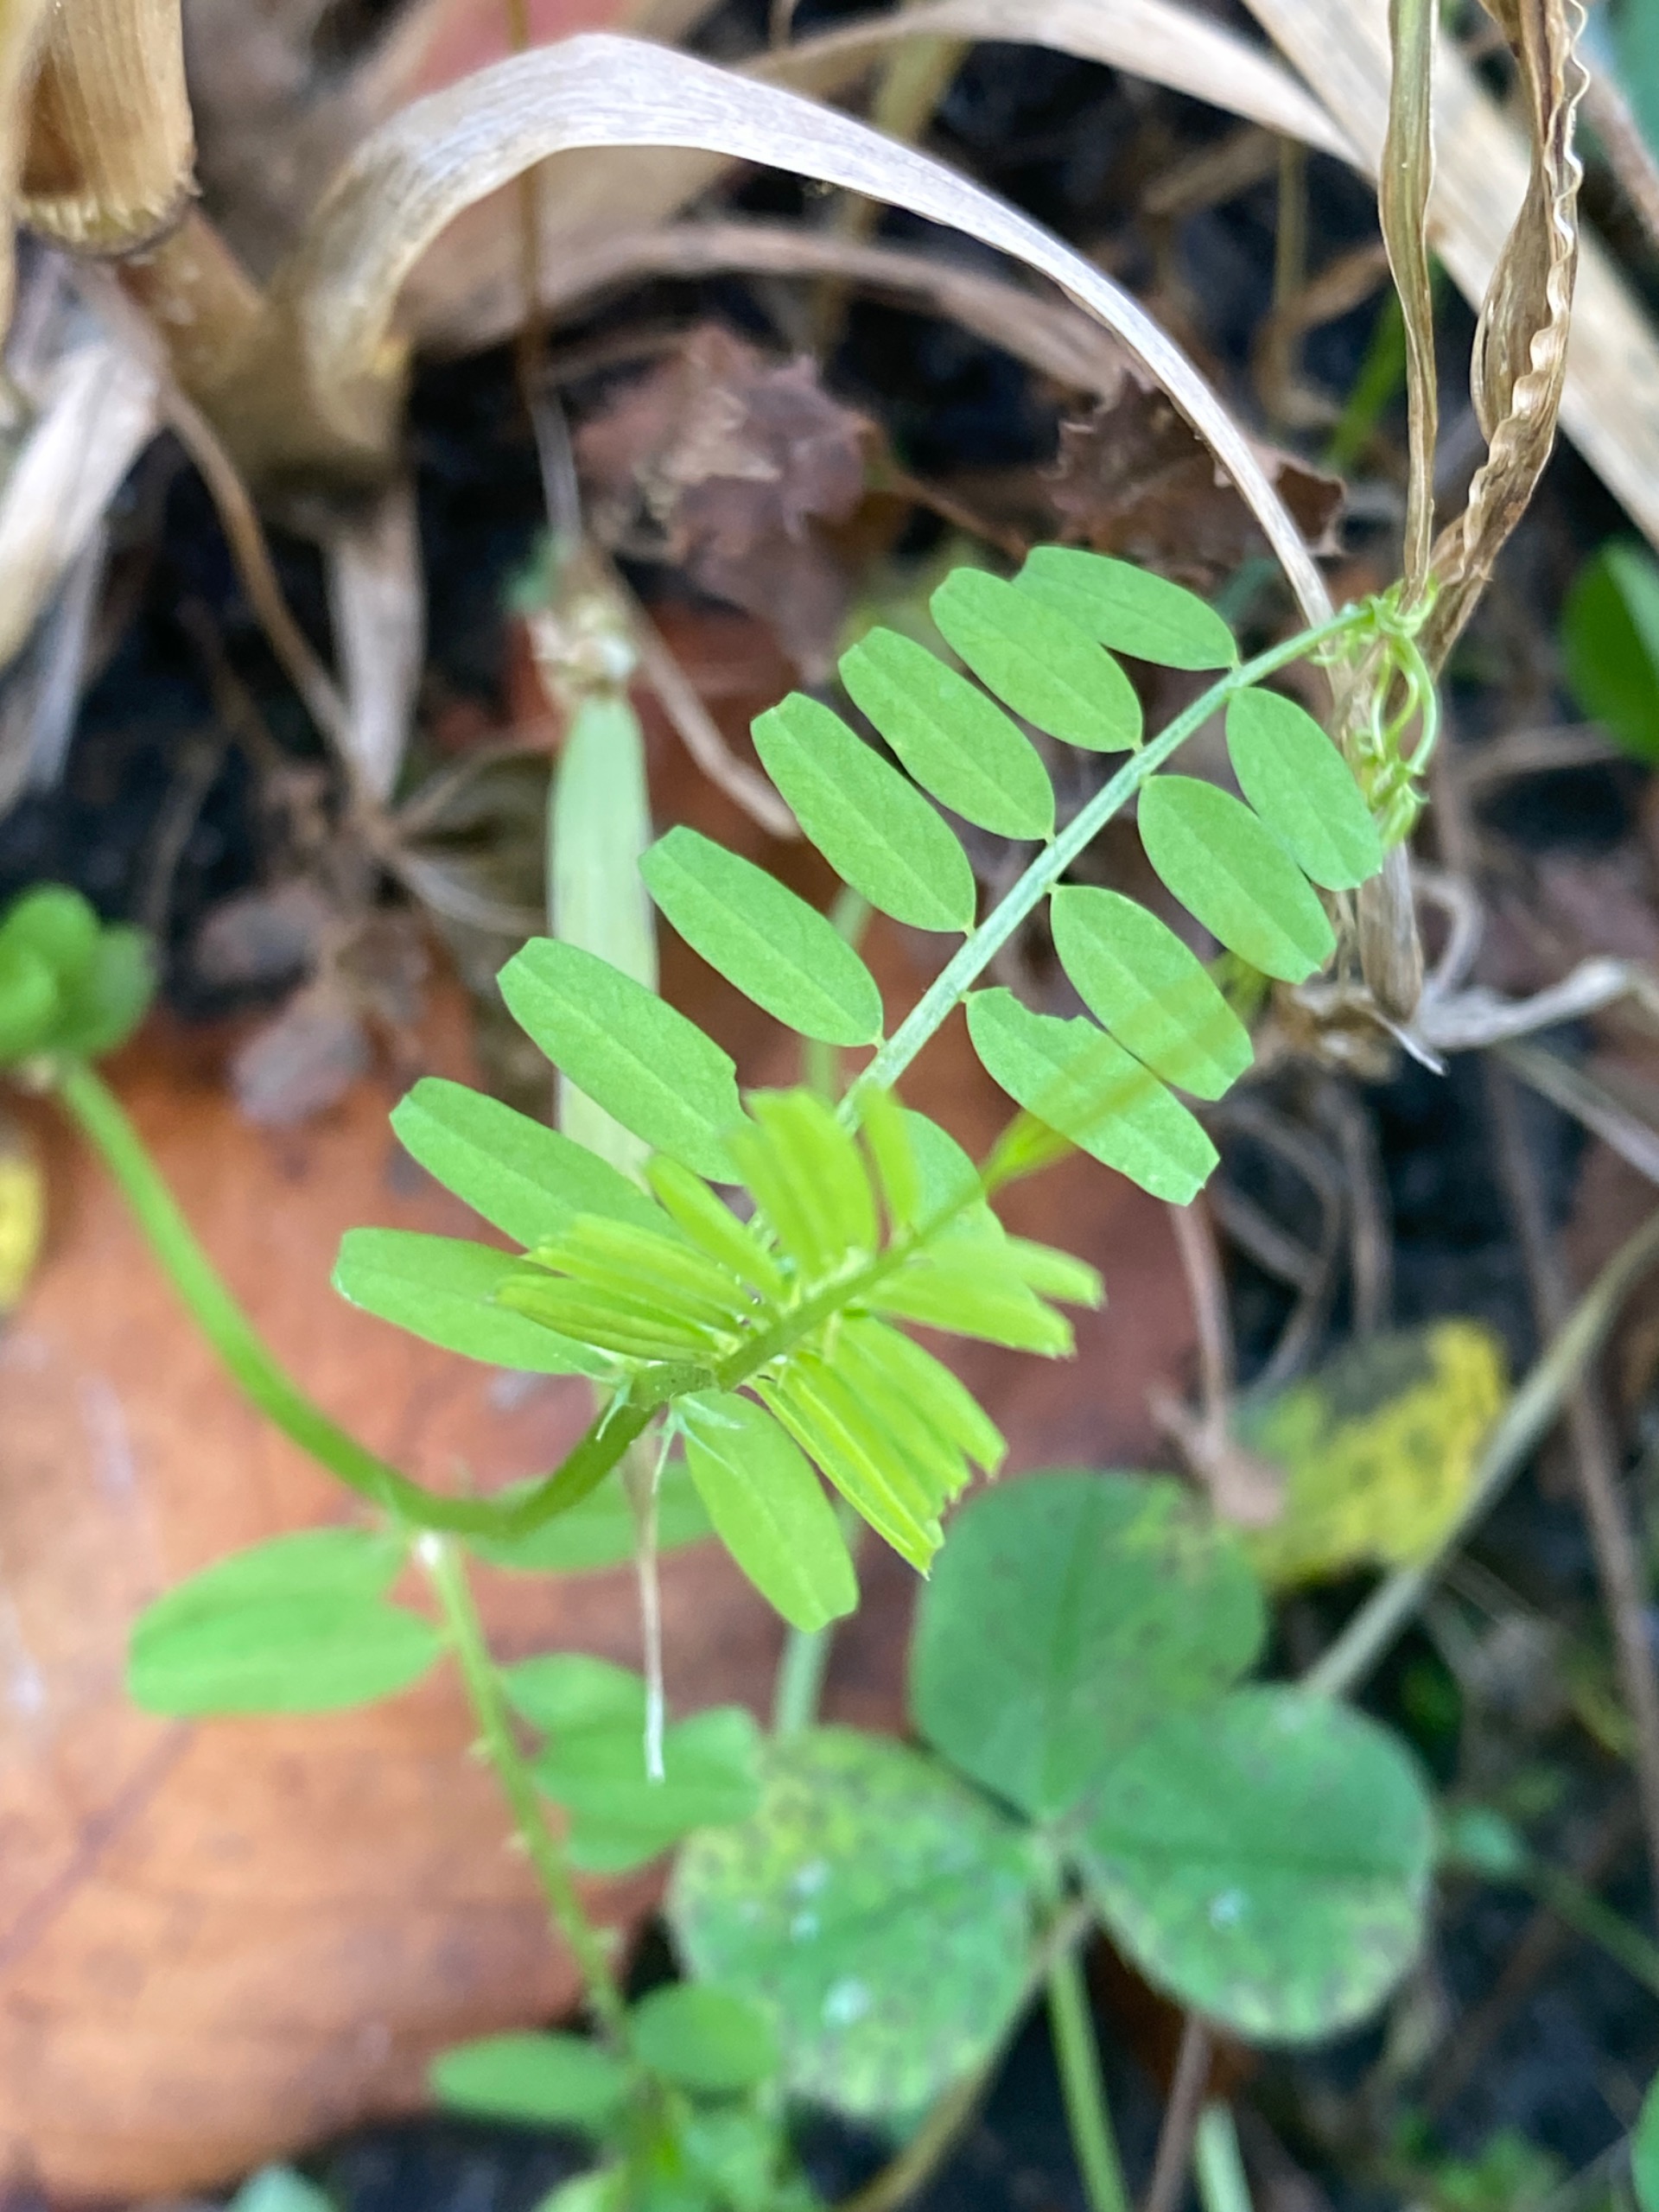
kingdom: Plantae
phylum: Tracheophyta
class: Magnoliopsida
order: Fabales
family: Fabaceae
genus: Vicia
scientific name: Vicia
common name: Vikkeslægten
